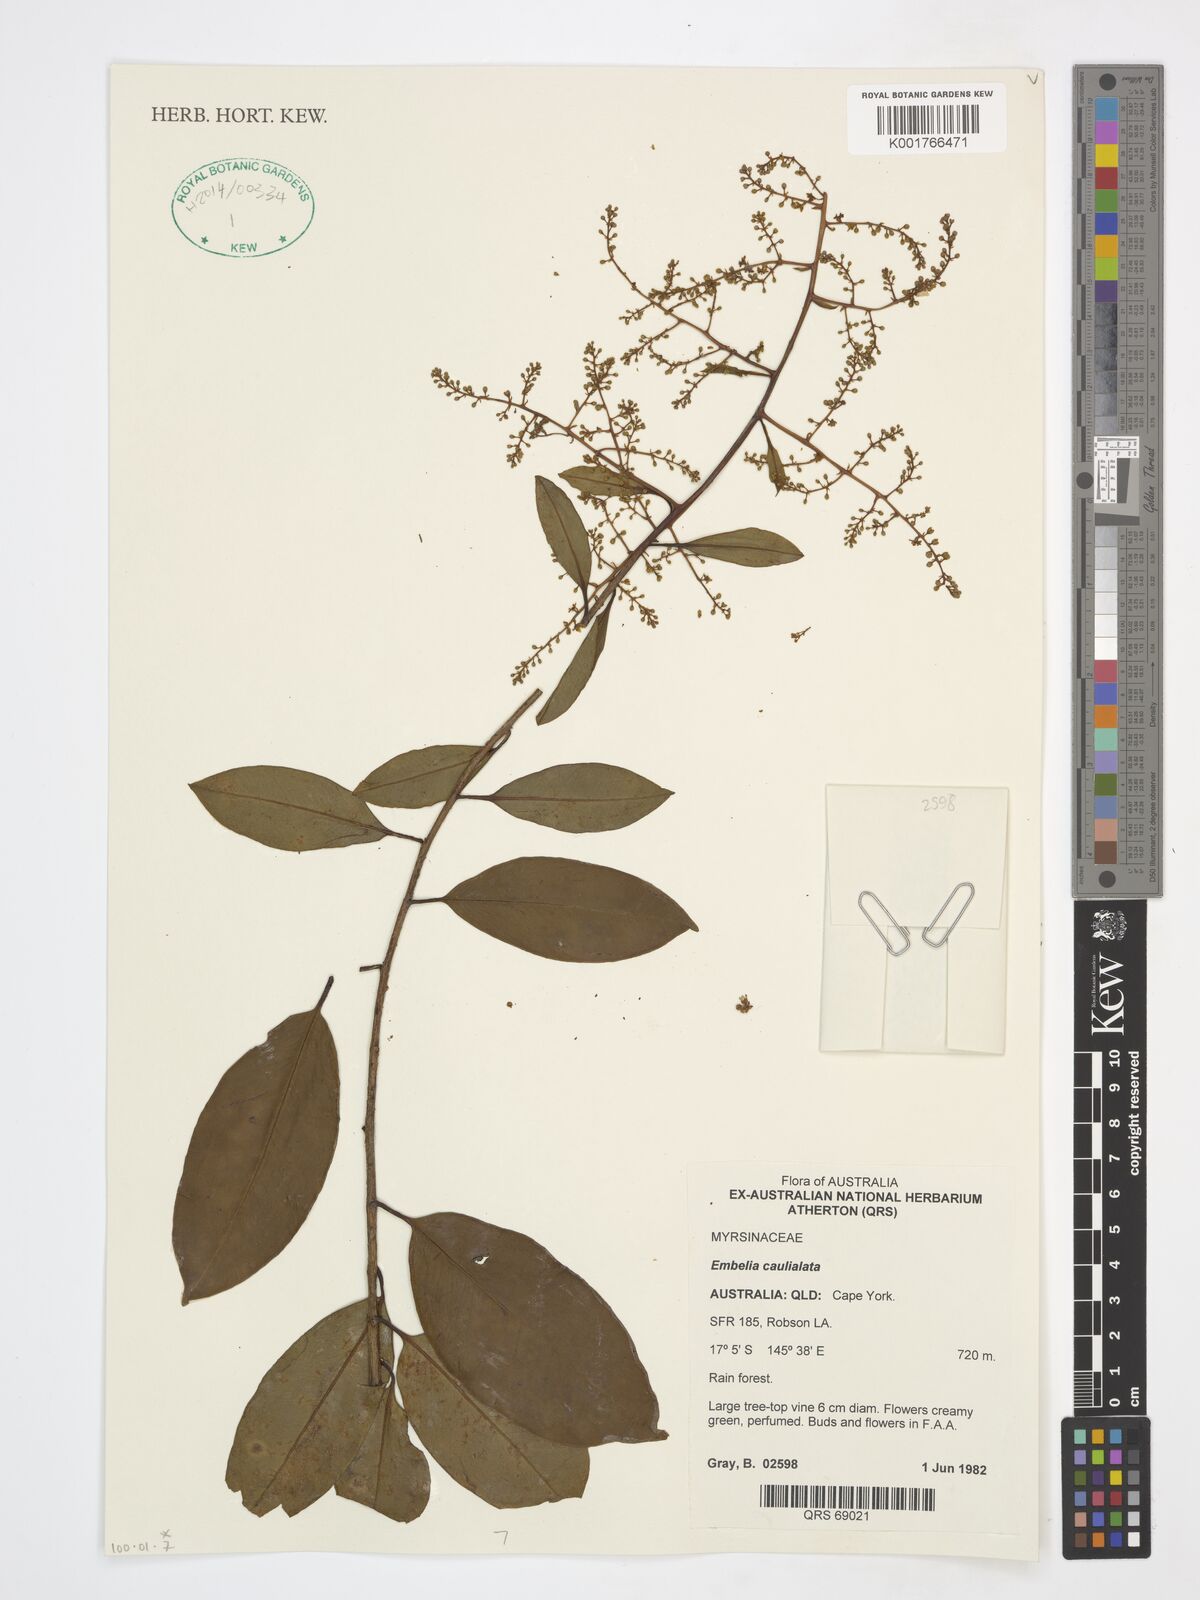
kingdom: Plantae
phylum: Tracheophyta
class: Magnoliopsida
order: Ericales
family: Primulaceae
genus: Embelia
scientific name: Embelia caulialata
